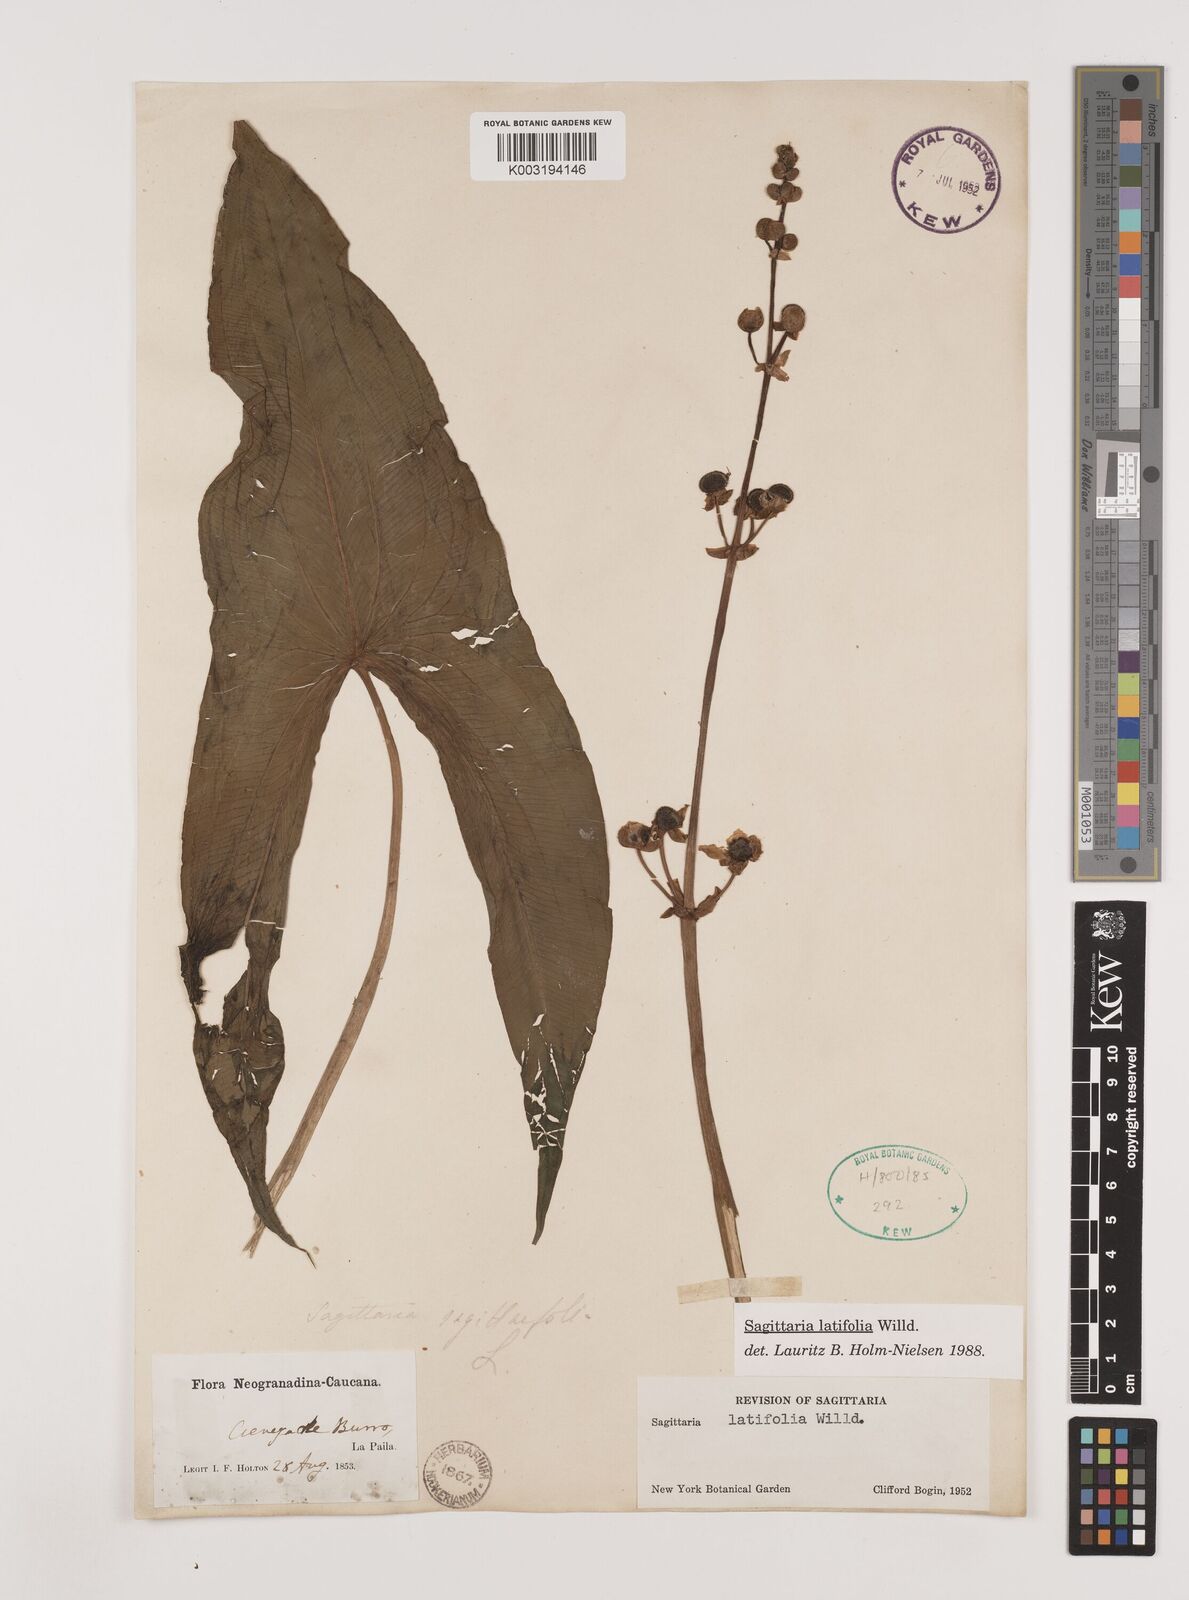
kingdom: Plantae
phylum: Tracheophyta
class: Liliopsida
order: Alismatales
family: Alismataceae
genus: Sagittaria
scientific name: Sagittaria latifolia
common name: Duck-potato
